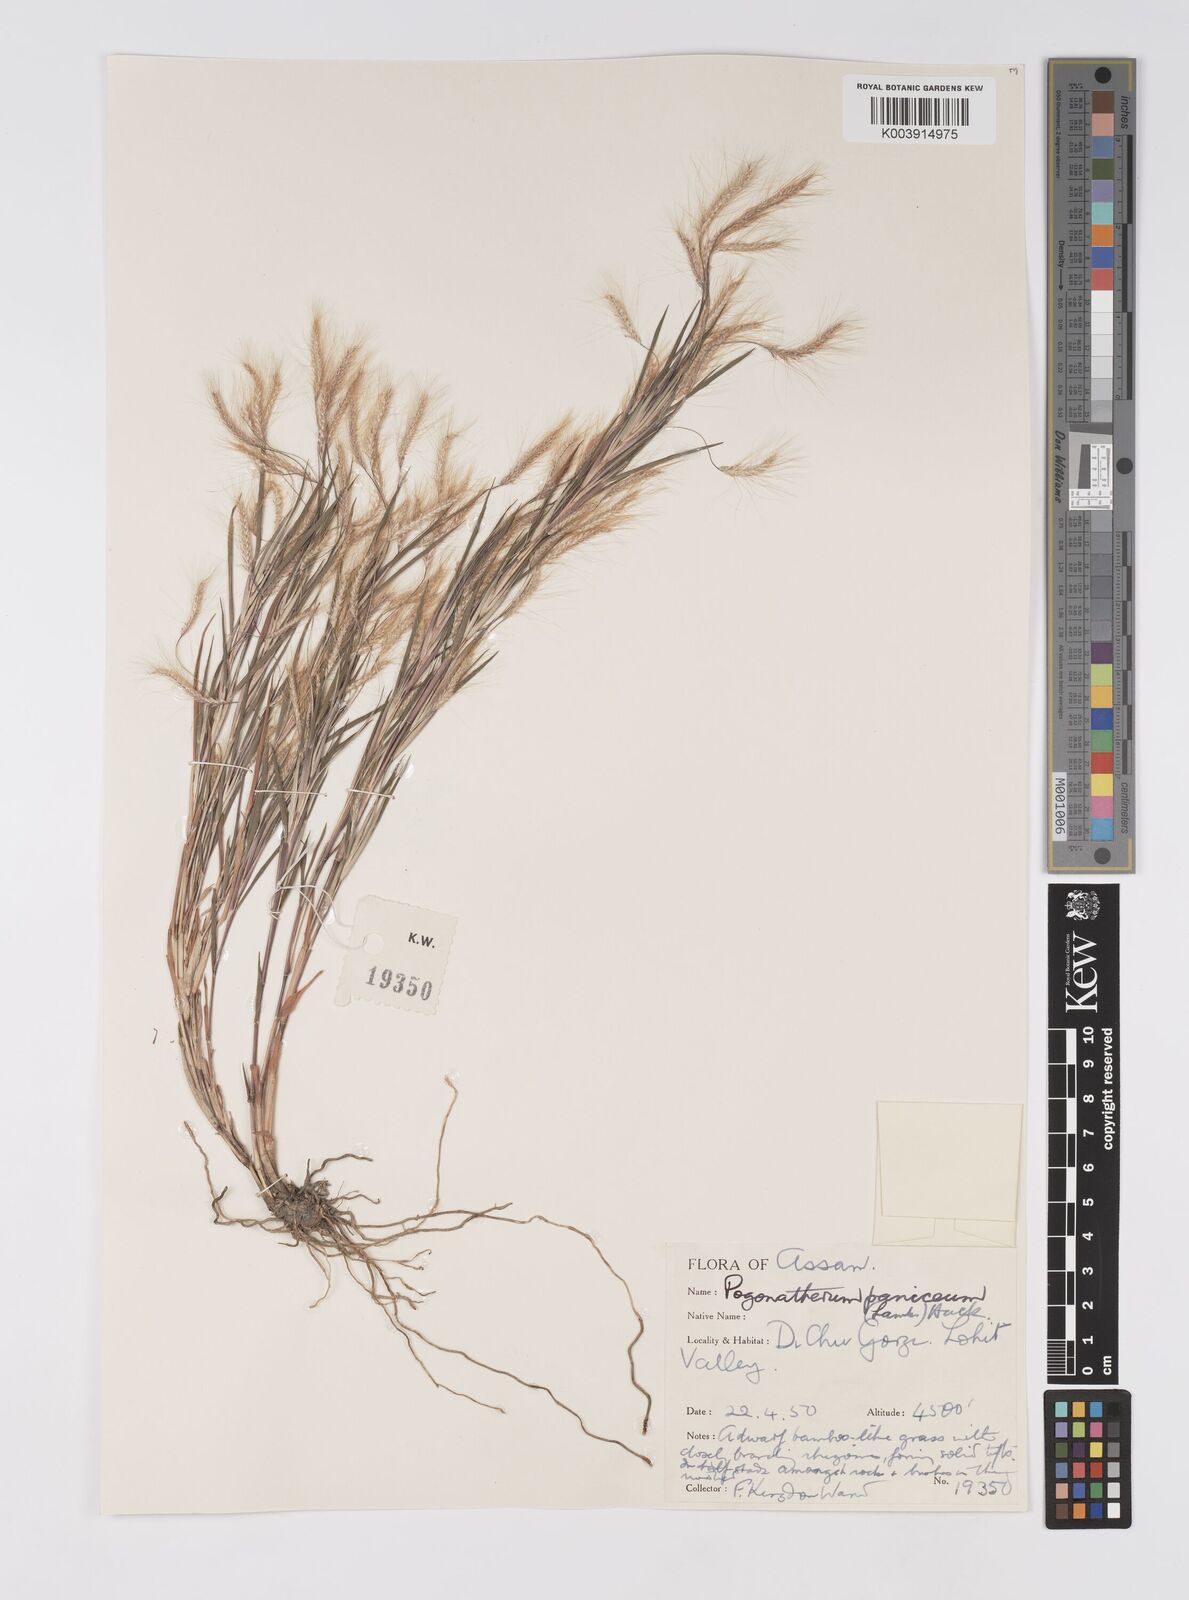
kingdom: Plantae
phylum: Tracheophyta
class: Liliopsida
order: Poales
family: Poaceae
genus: Pogonatherum
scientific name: Pogonatherum paniceum
